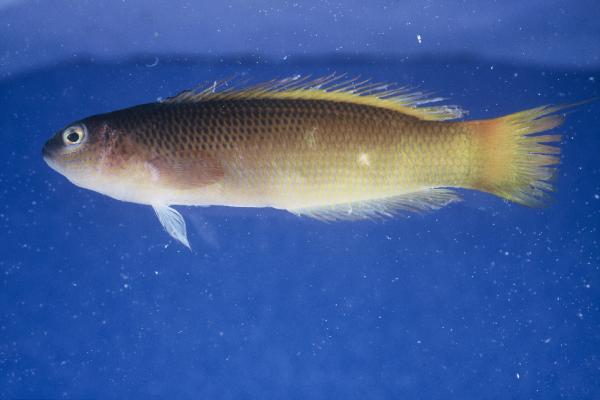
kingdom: Animalia
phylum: Chordata
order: Perciformes
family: Pseudochromidae
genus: Pseudochromis
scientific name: Pseudochromis natalensis
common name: Natal dottyback
